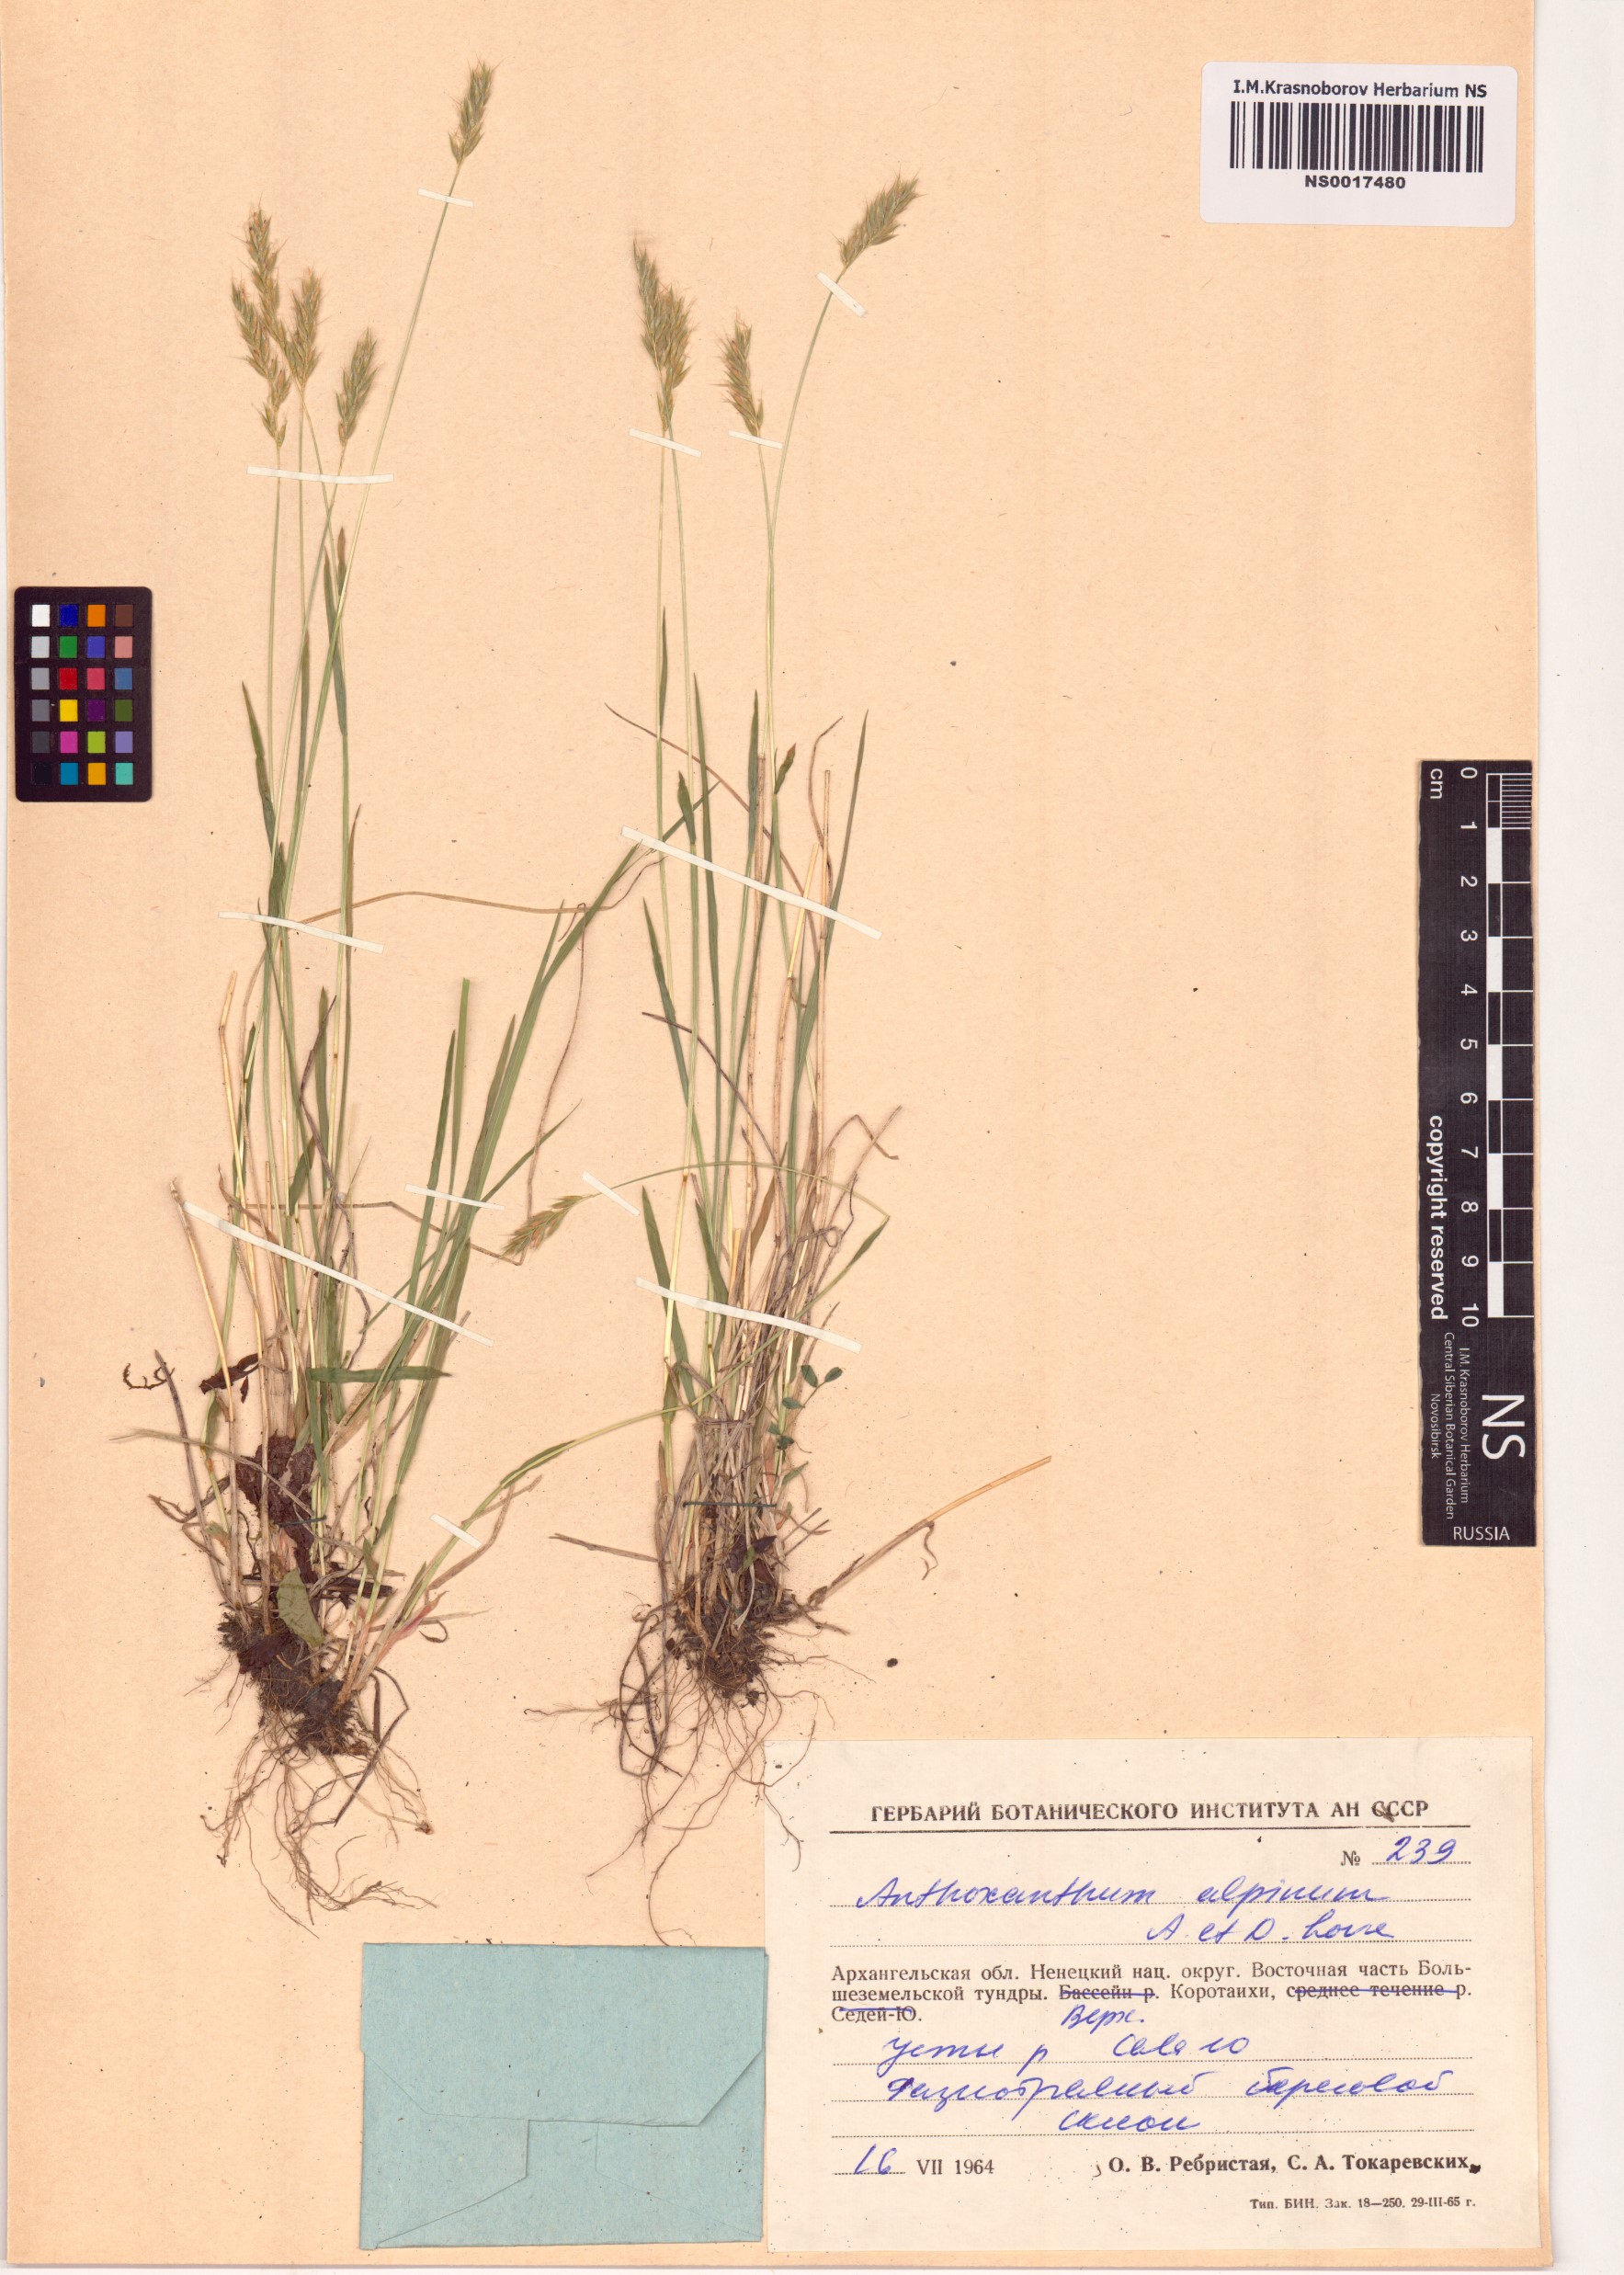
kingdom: Plantae
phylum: Tracheophyta
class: Liliopsida
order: Poales
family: Poaceae
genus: Anthoxanthum
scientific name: Anthoxanthum nipponicum
